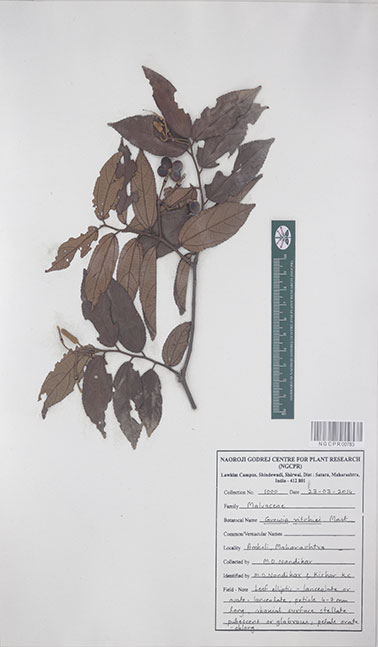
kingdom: Plantae
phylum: Tracheophyta
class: Magnoliopsida
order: Malvales
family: Malvaceae
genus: Grewia
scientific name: Grewia ritchiei
